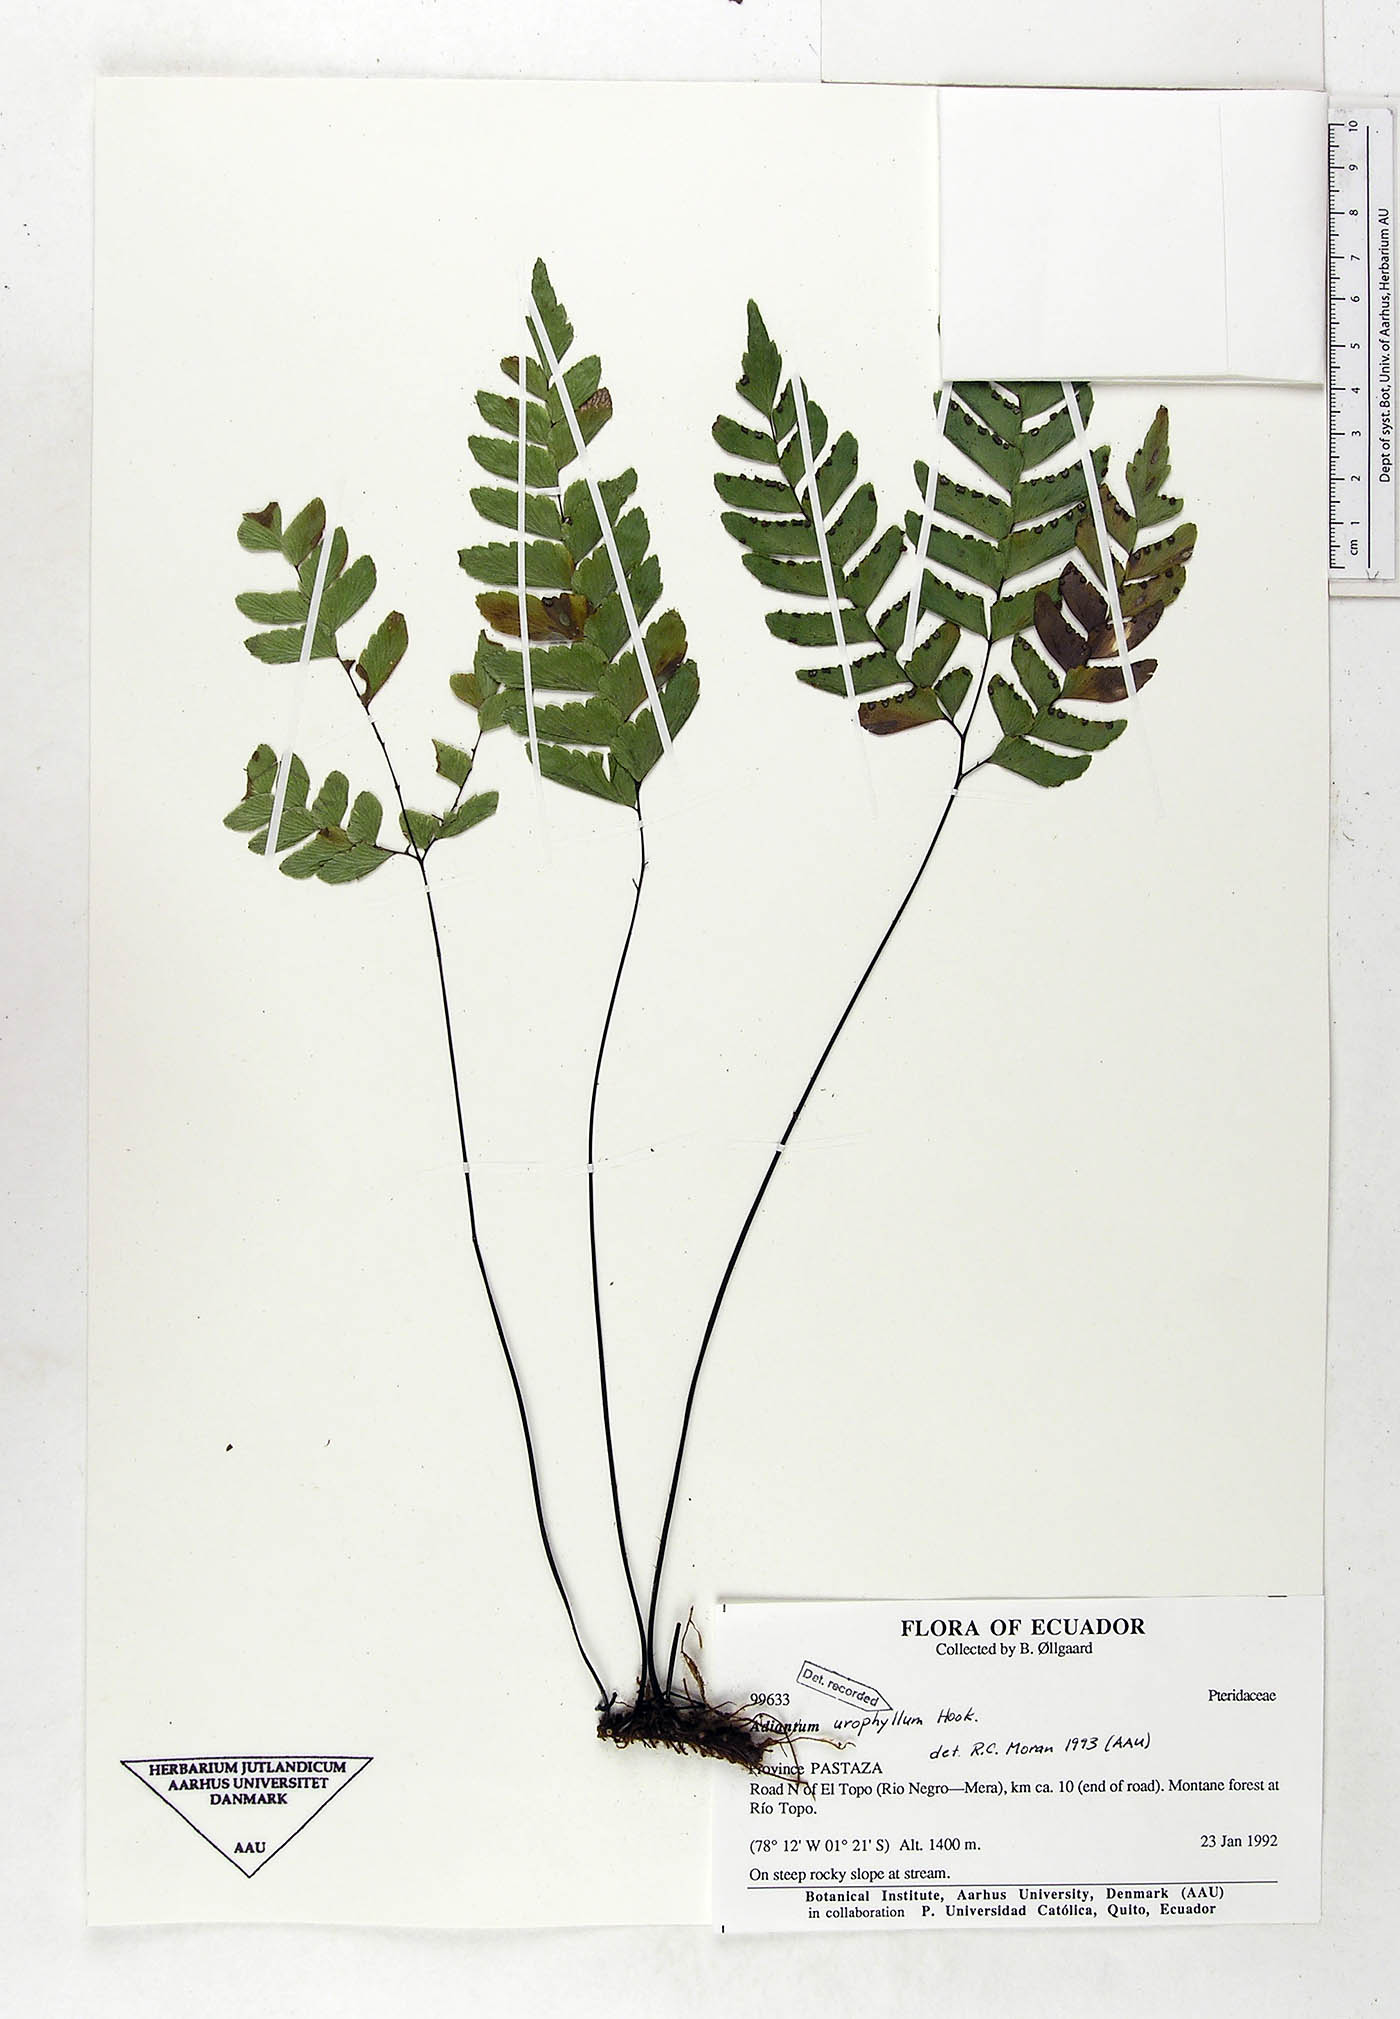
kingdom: Plantae
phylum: Tracheophyta
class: Polypodiopsida
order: Polypodiales
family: Pteridaceae
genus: Adiantum
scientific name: Adiantum urophyllum
